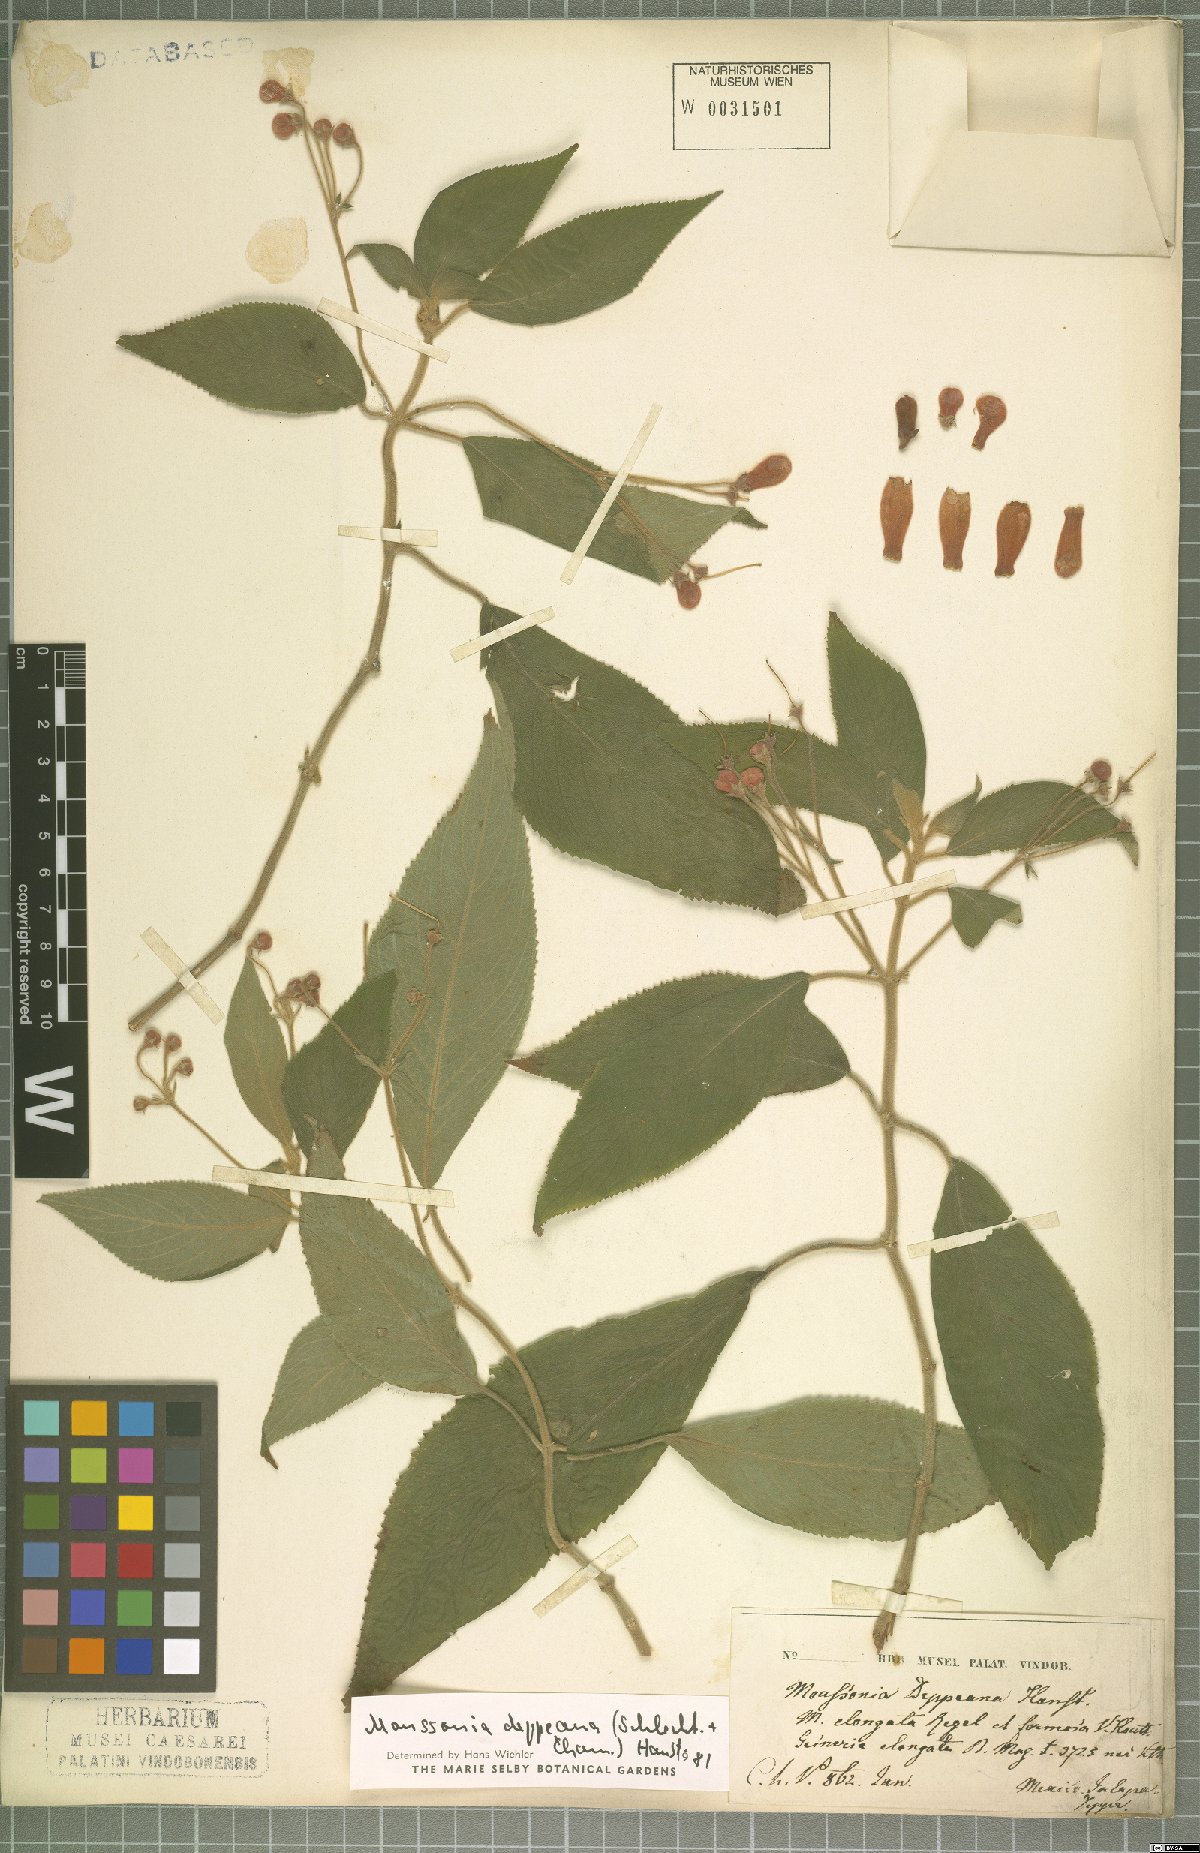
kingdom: Plantae
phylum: Tracheophyta
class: Magnoliopsida
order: Lamiales
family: Gesneriaceae
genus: Moussonia
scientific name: Moussonia deppeana
